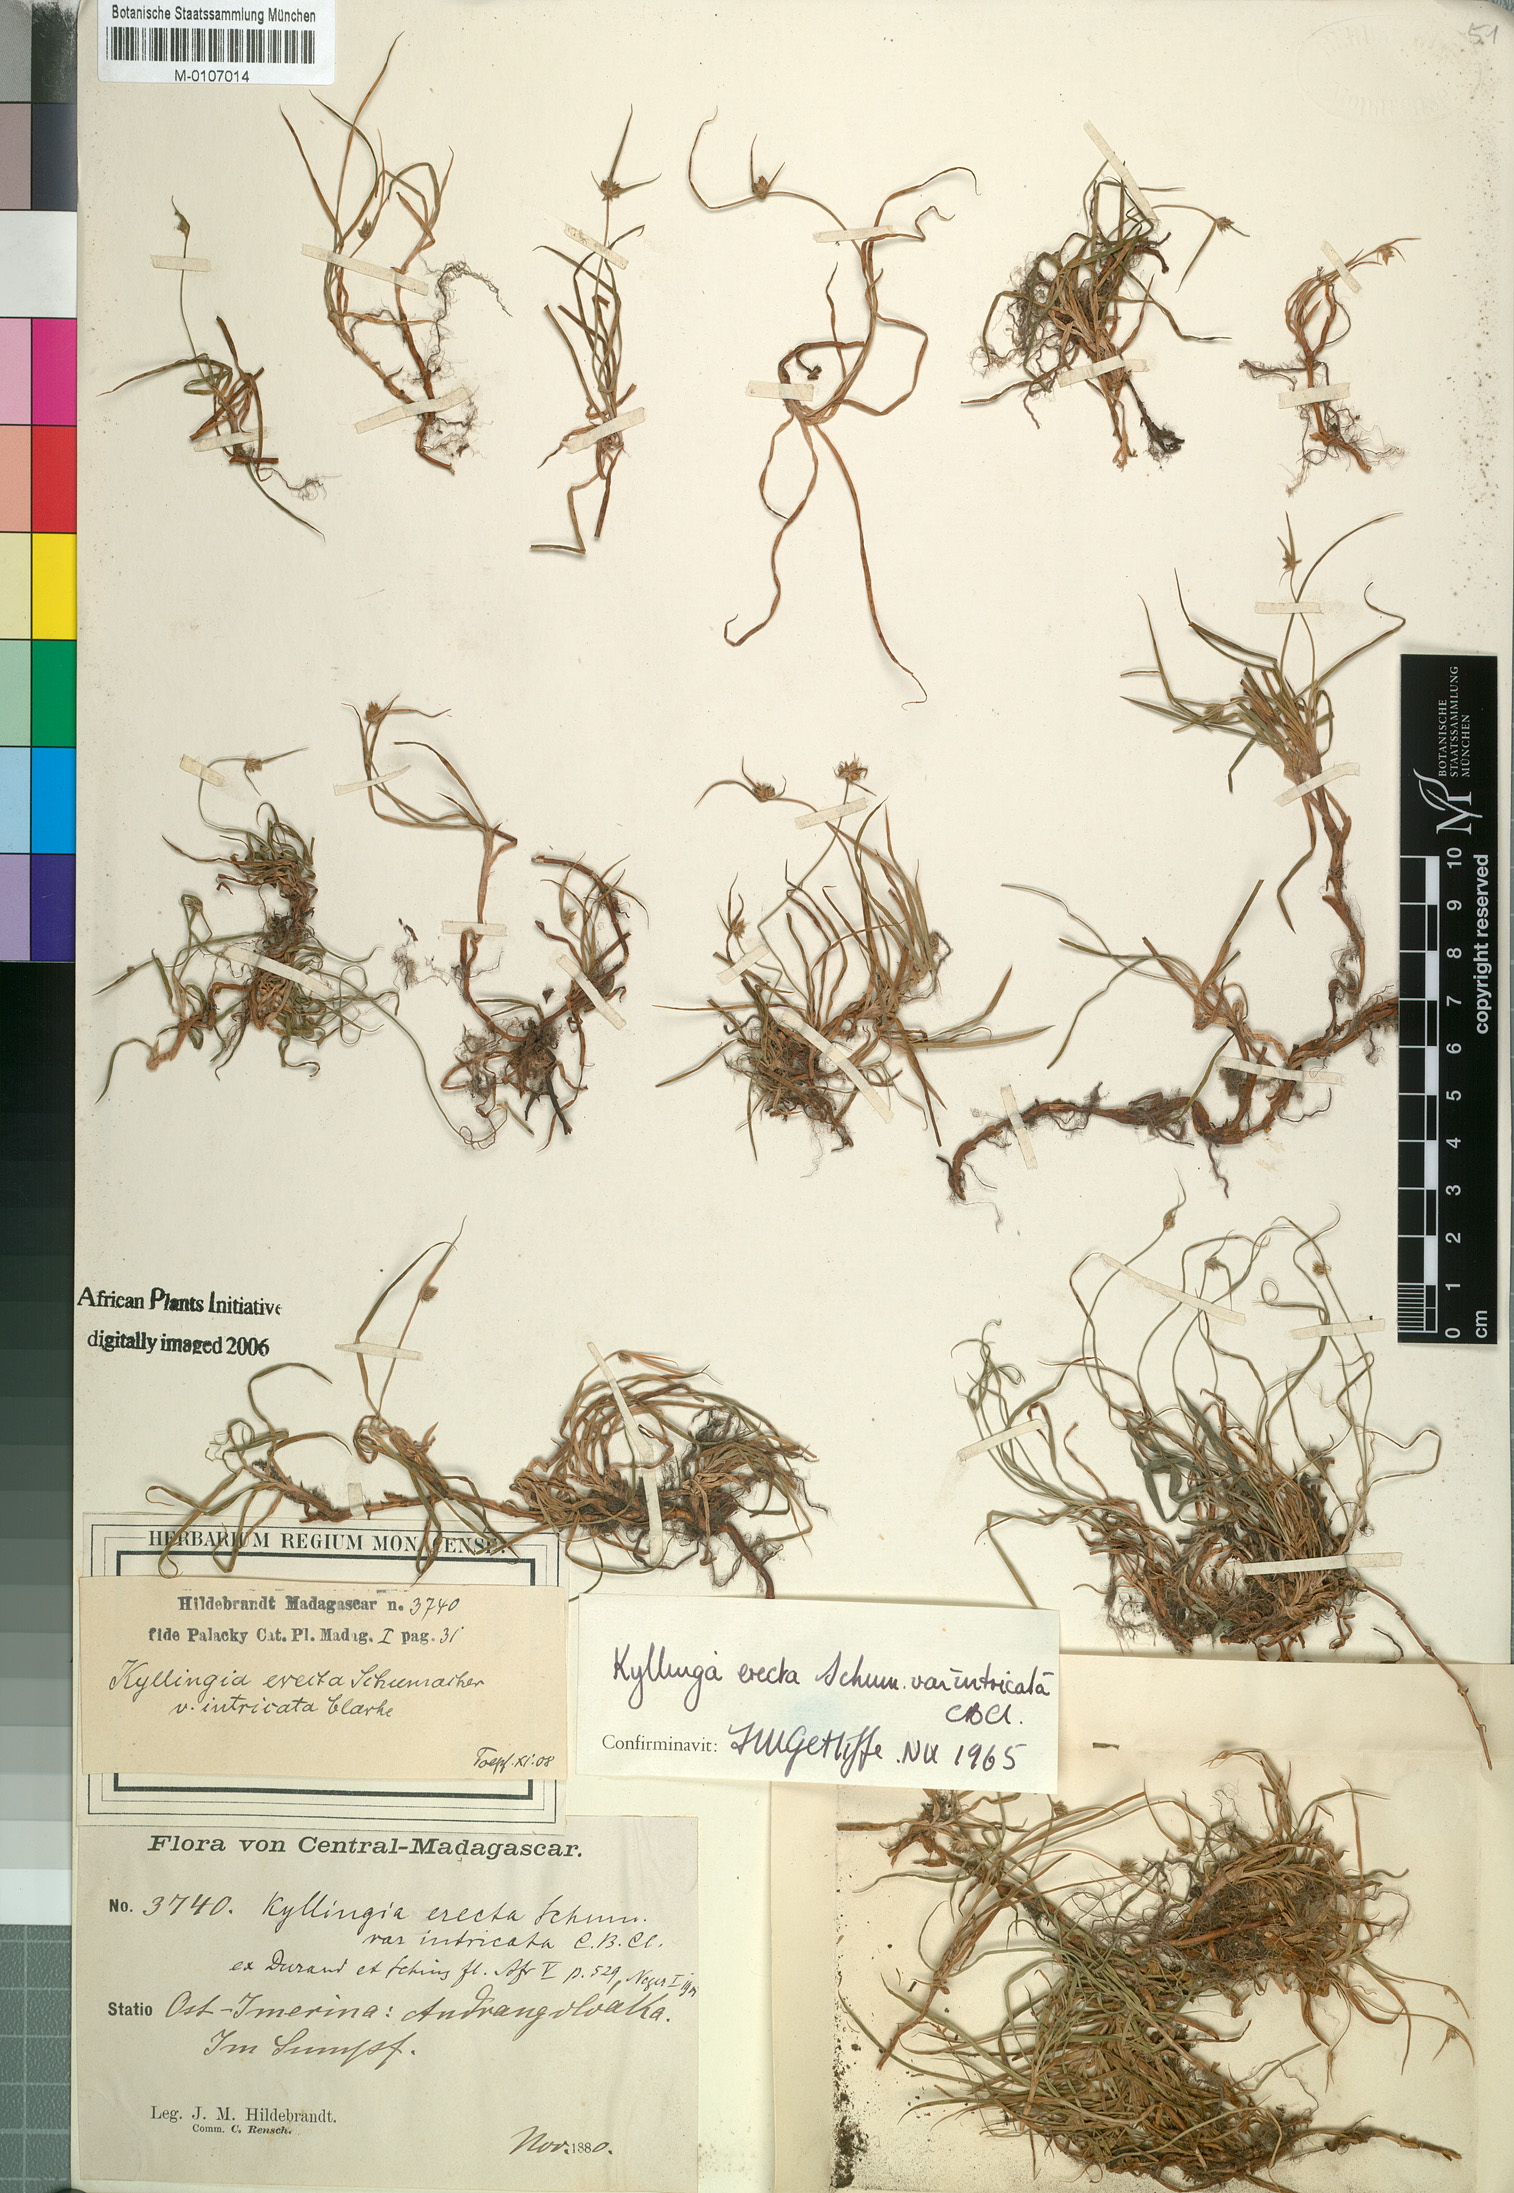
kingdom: Plantae
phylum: Tracheophyta
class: Liliopsida
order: Poales
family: Cyperaceae
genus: Cyperus
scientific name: Cyperus erectus
